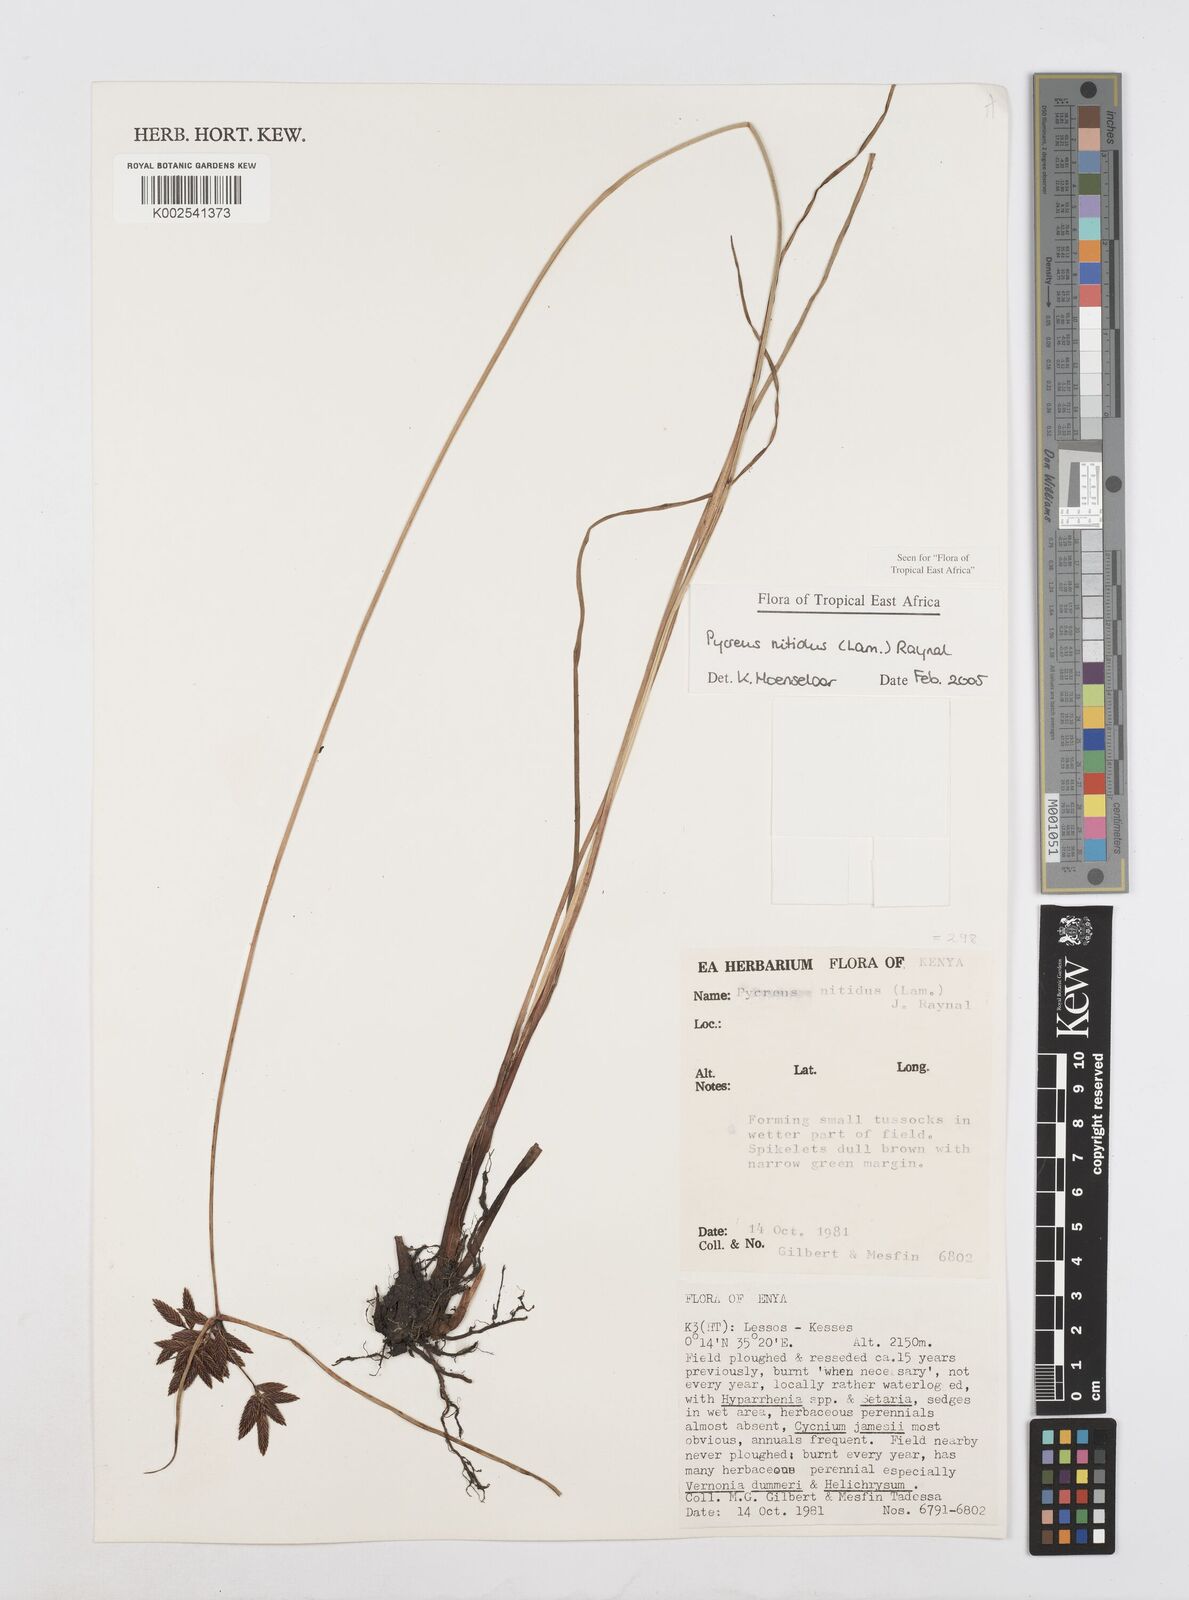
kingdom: Plantae
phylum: Tracheophyta
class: Liliopsida
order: Poales
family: Cyperaceae
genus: Cyperus
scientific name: Cyperus nitidus
